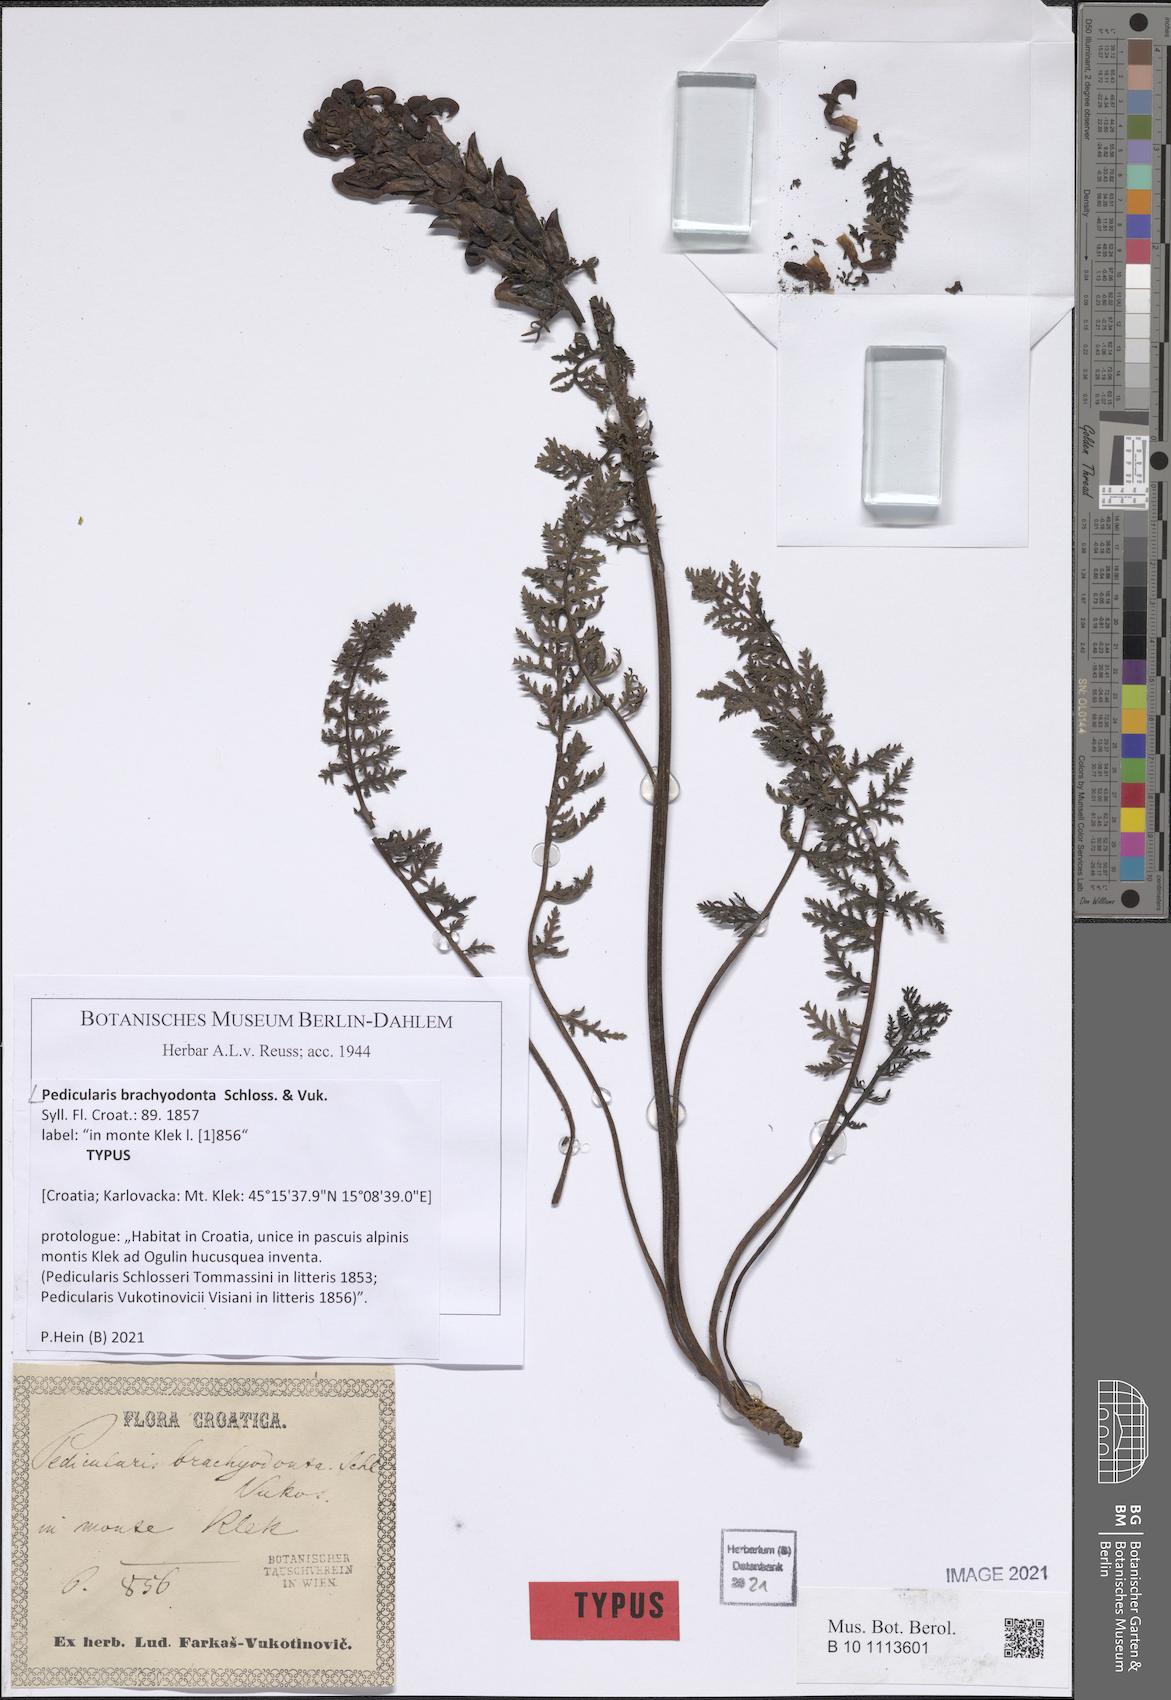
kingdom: Plantae
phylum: Tracheophyta
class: Magnoliopsida
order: Lamiales
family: Orobanchaceae
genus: Pedicularis
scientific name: Pedicularis brachyodonta
